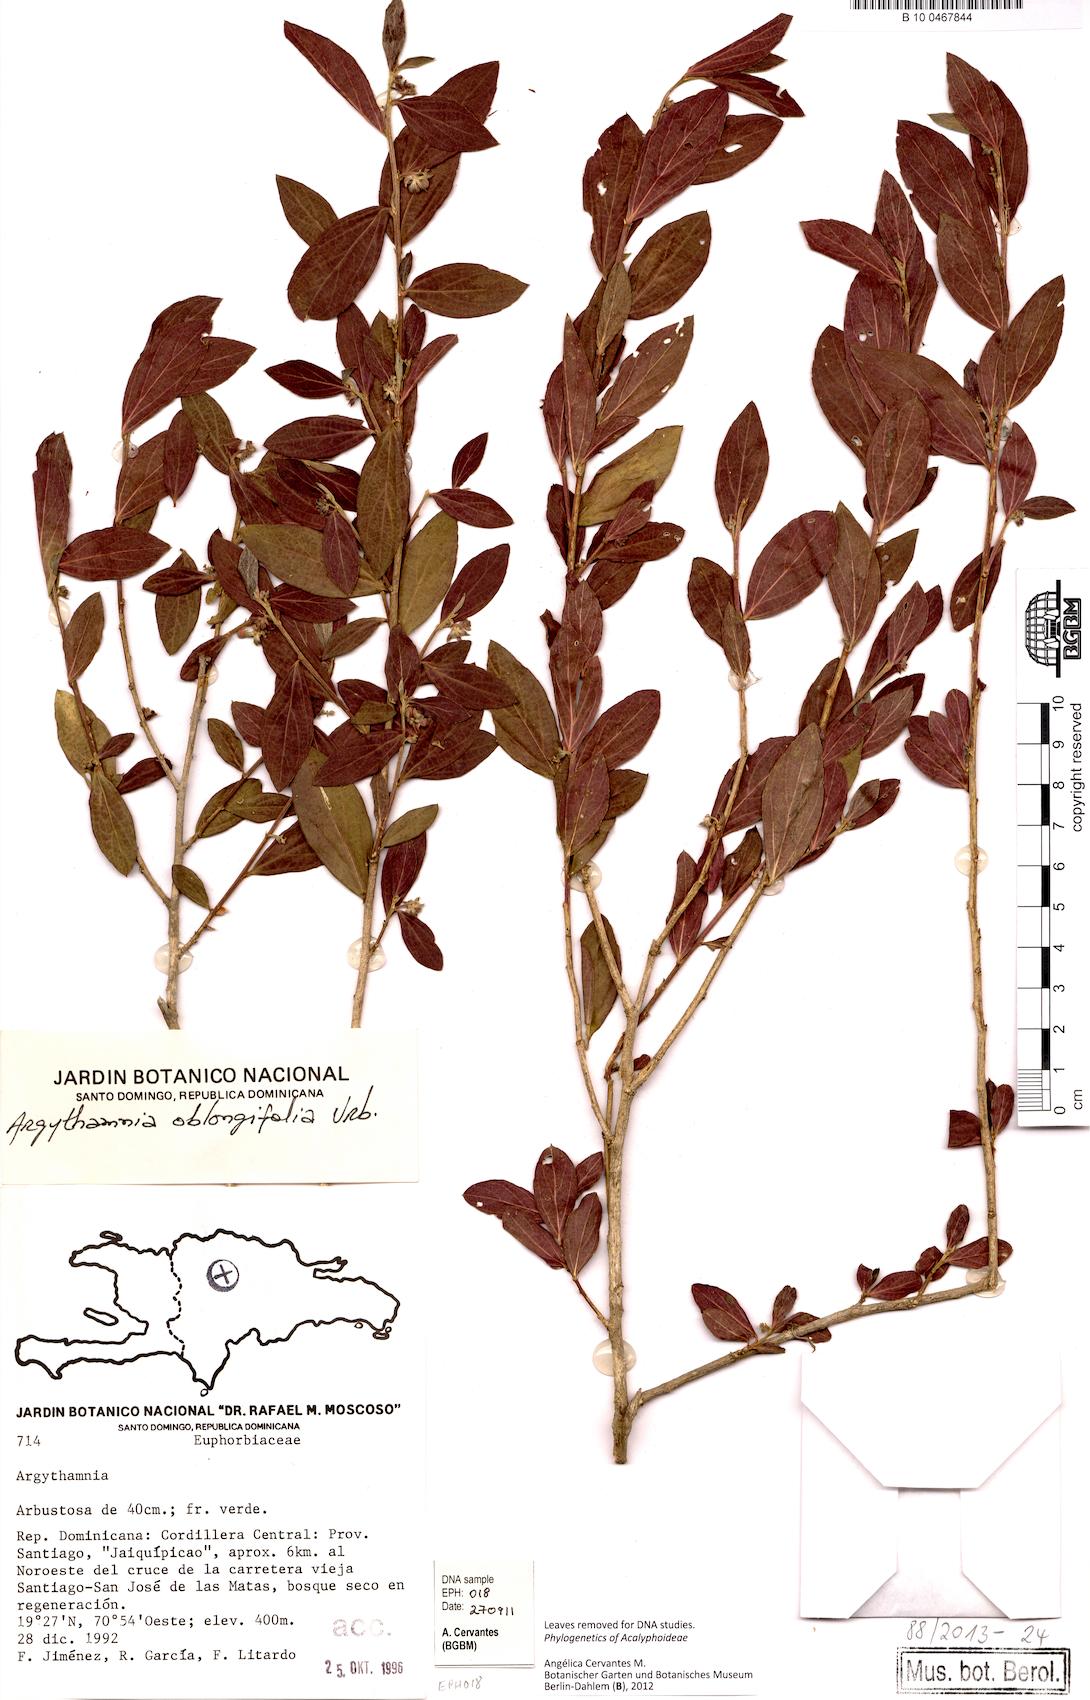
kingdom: Plantae
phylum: Tracheophyta
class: Magnoliopsida
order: Malpighiales
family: Euphorbiaceae
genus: Argythamnia
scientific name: Argythamnia oblongifolia
